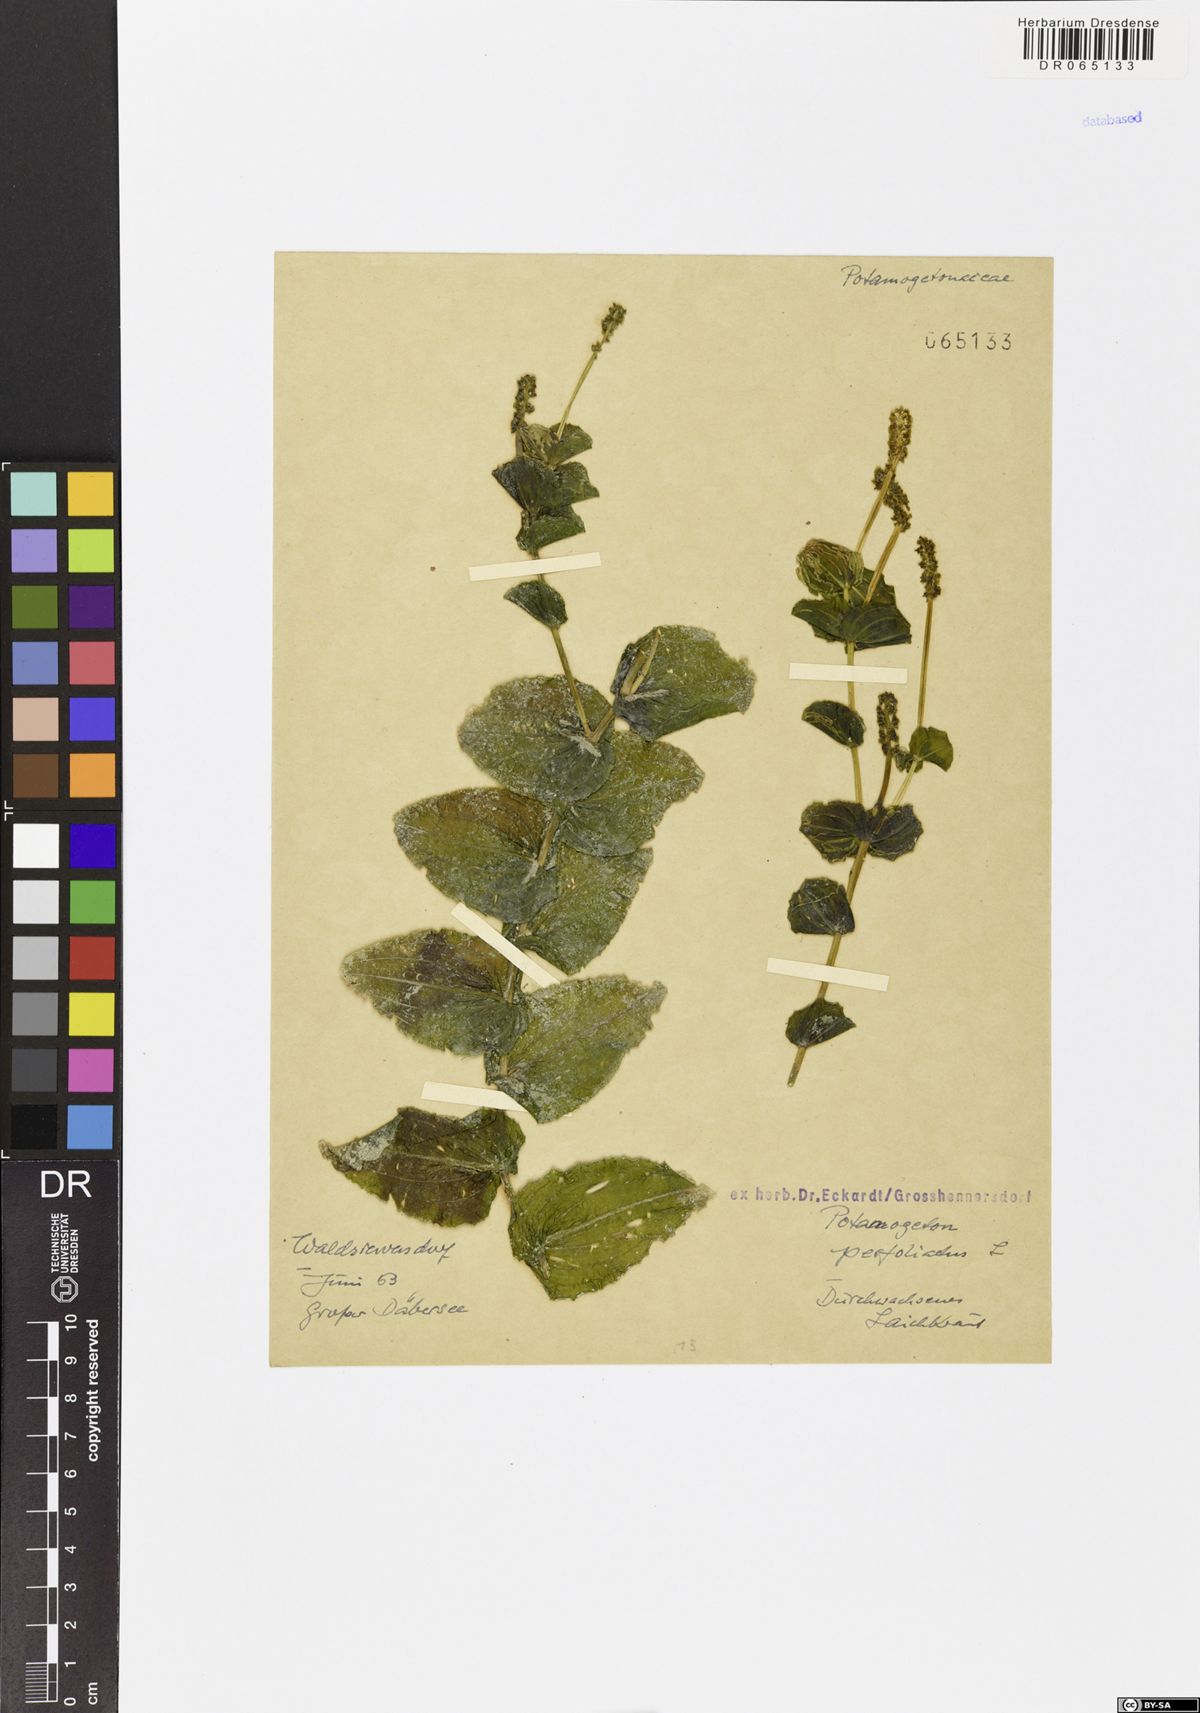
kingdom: Plantae
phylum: Tracheophyta
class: Liliopsida
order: Alismatales
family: Potamogetonaceae
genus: Potamogeton
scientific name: Potamogeton perfoliatus
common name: Perfoliate pondweed
